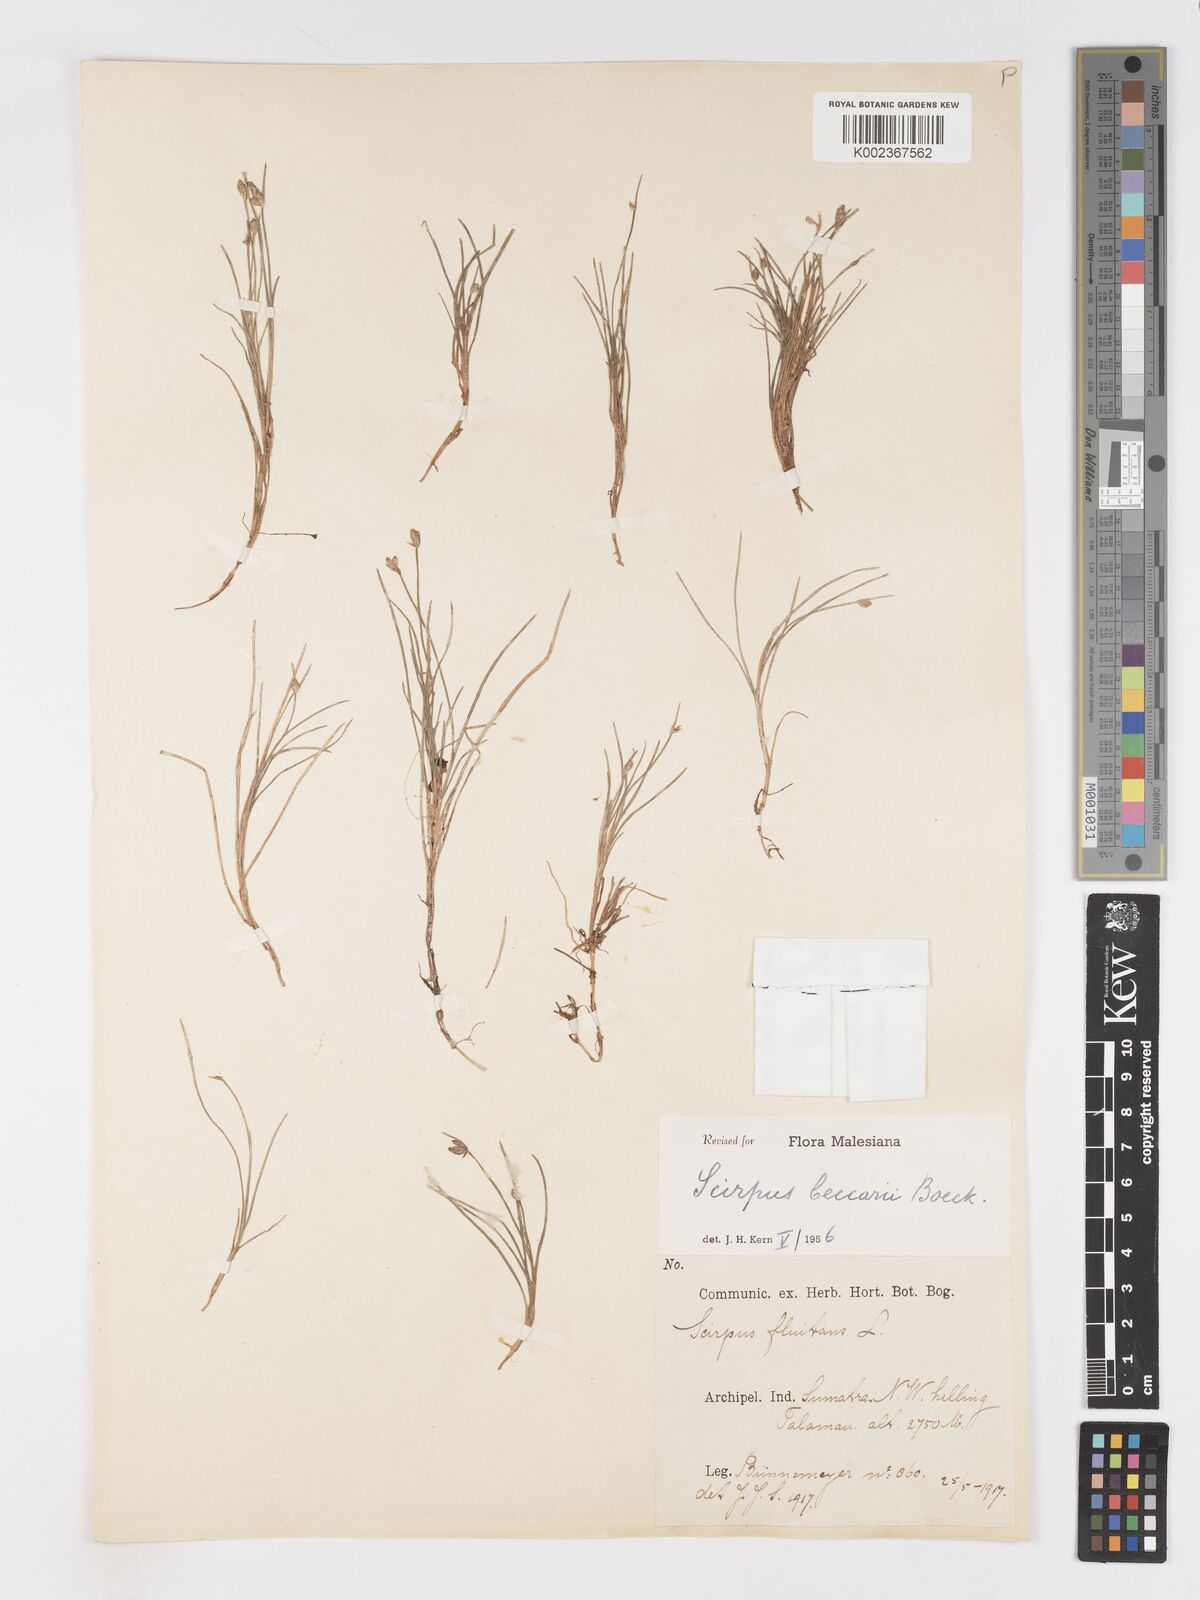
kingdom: Plantae
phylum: Tracheophyta
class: Liliopsida
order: Poales
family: Cyperaceae
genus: Isolepis
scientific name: Isolepis beccarii
